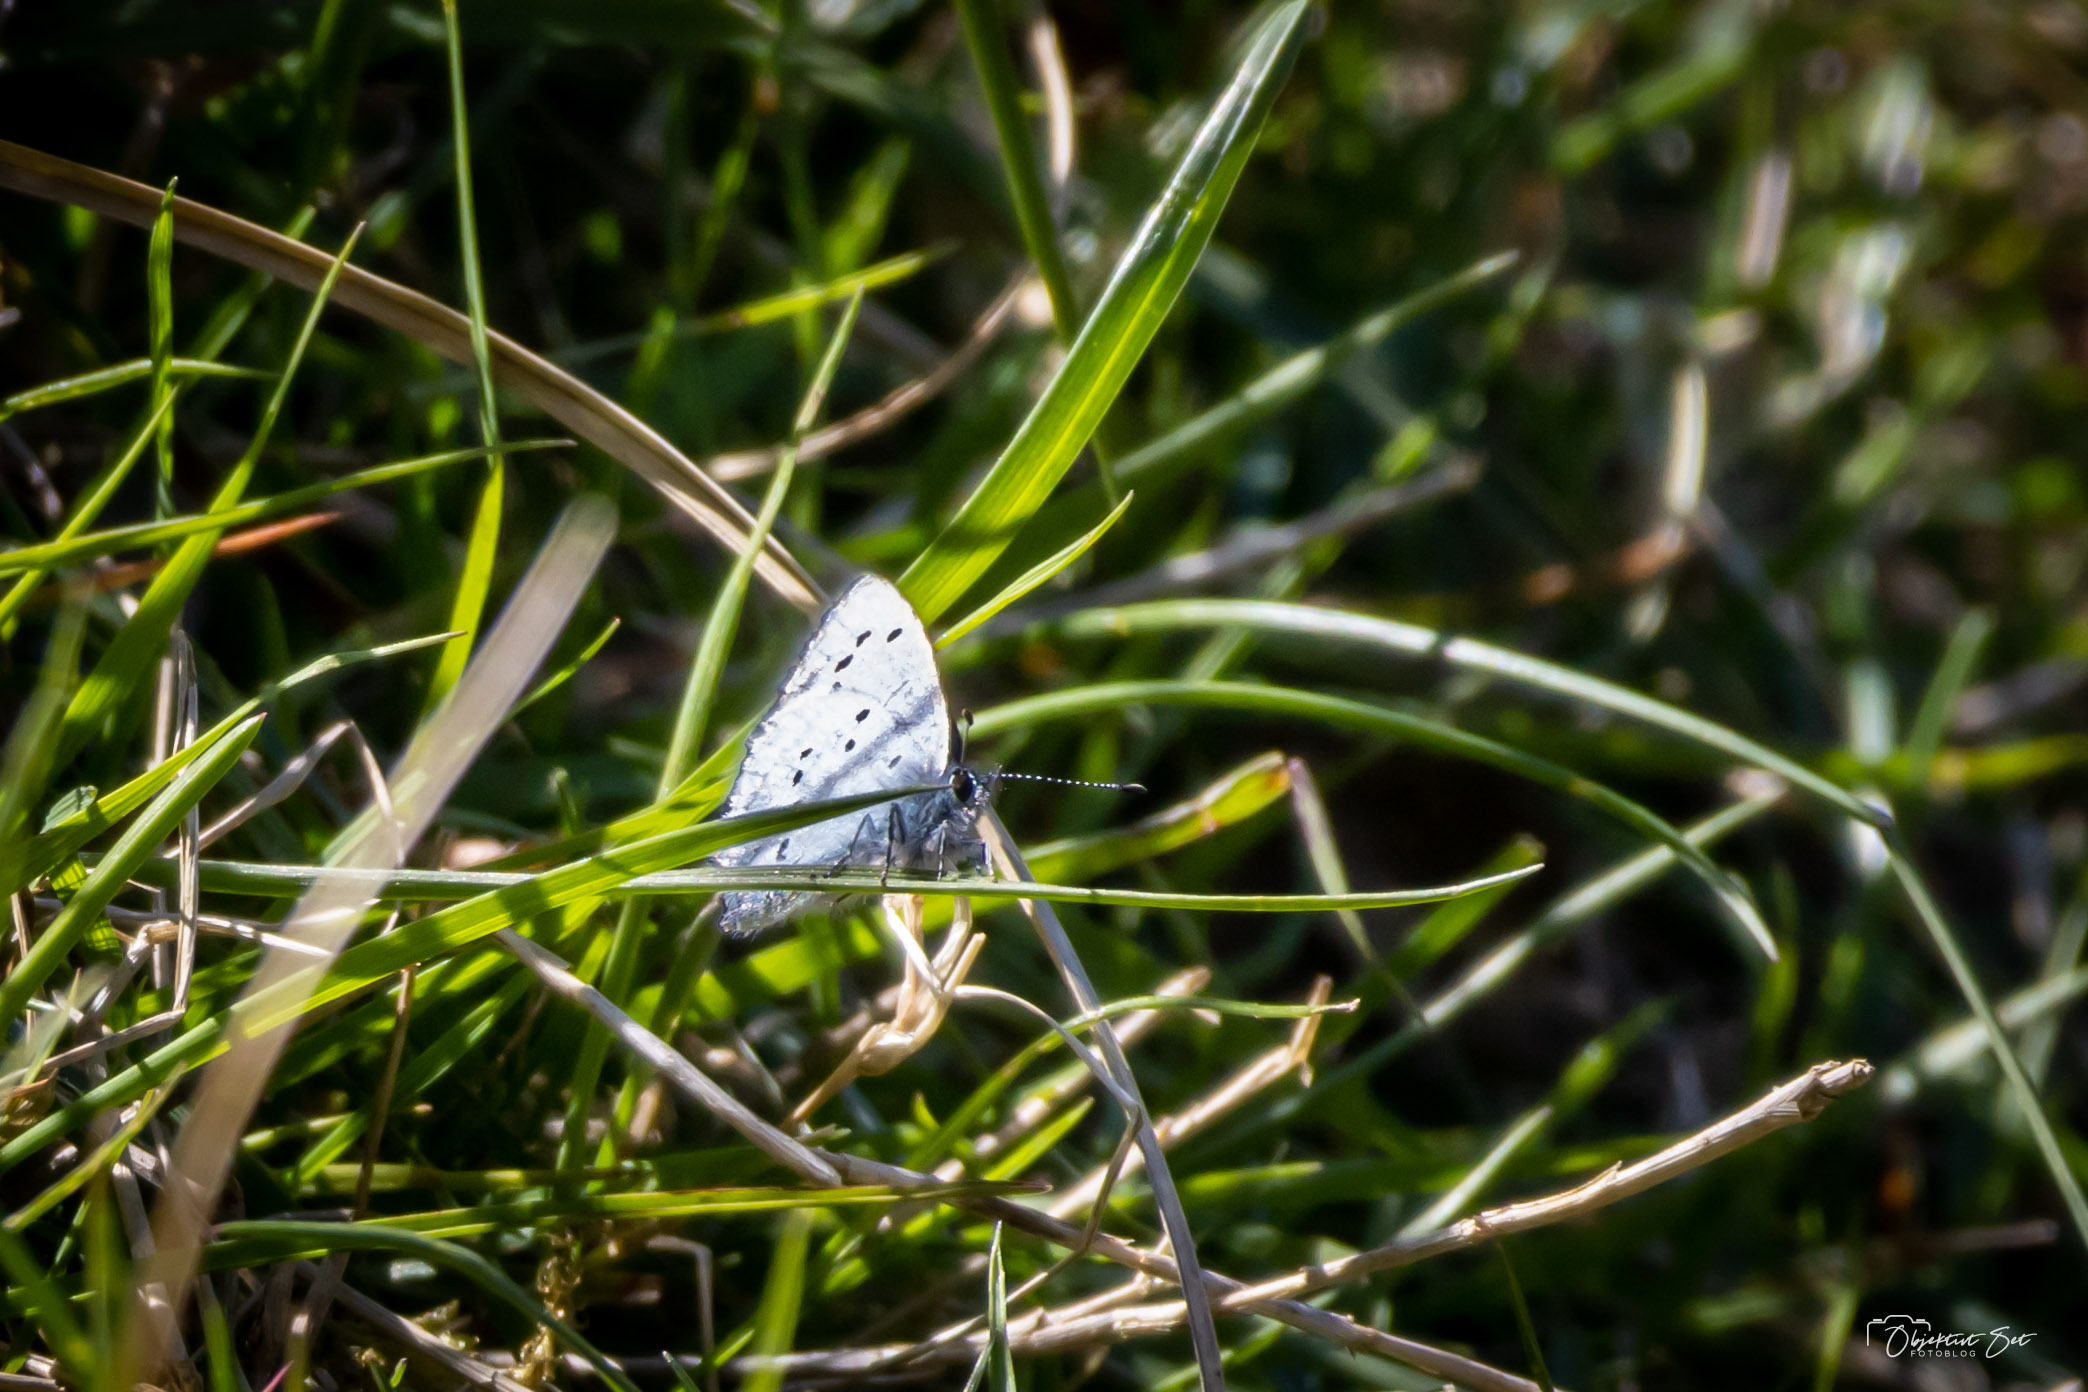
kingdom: Animalia
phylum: Arthropoda
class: Insecta
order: Lepidoptera
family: Lycaenidae
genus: Celastrina
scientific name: Celastrina argiolus
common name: Skovblåfugl
